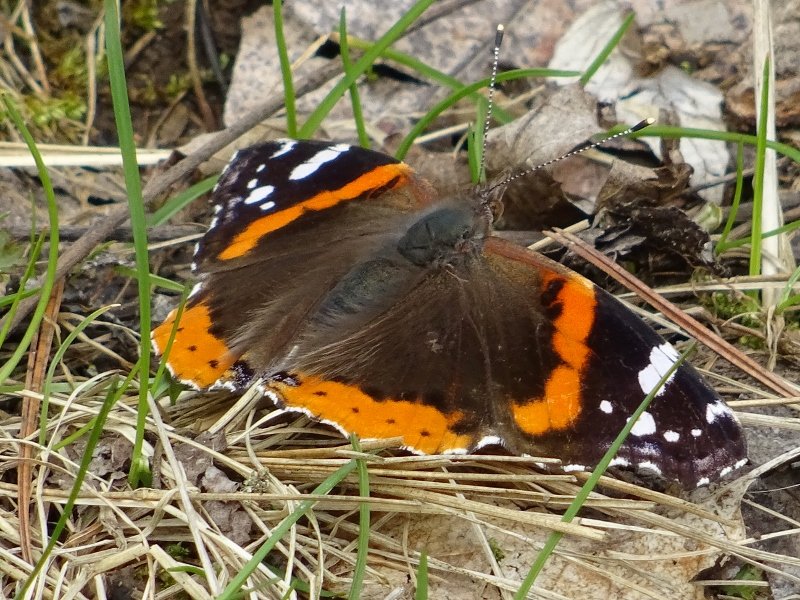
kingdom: Animalia
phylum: Arthropoda
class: Insecta
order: Lepidoptera
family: Nymphalidae
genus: Vanessa
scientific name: Vanessa atalanta
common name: Red Admiral
